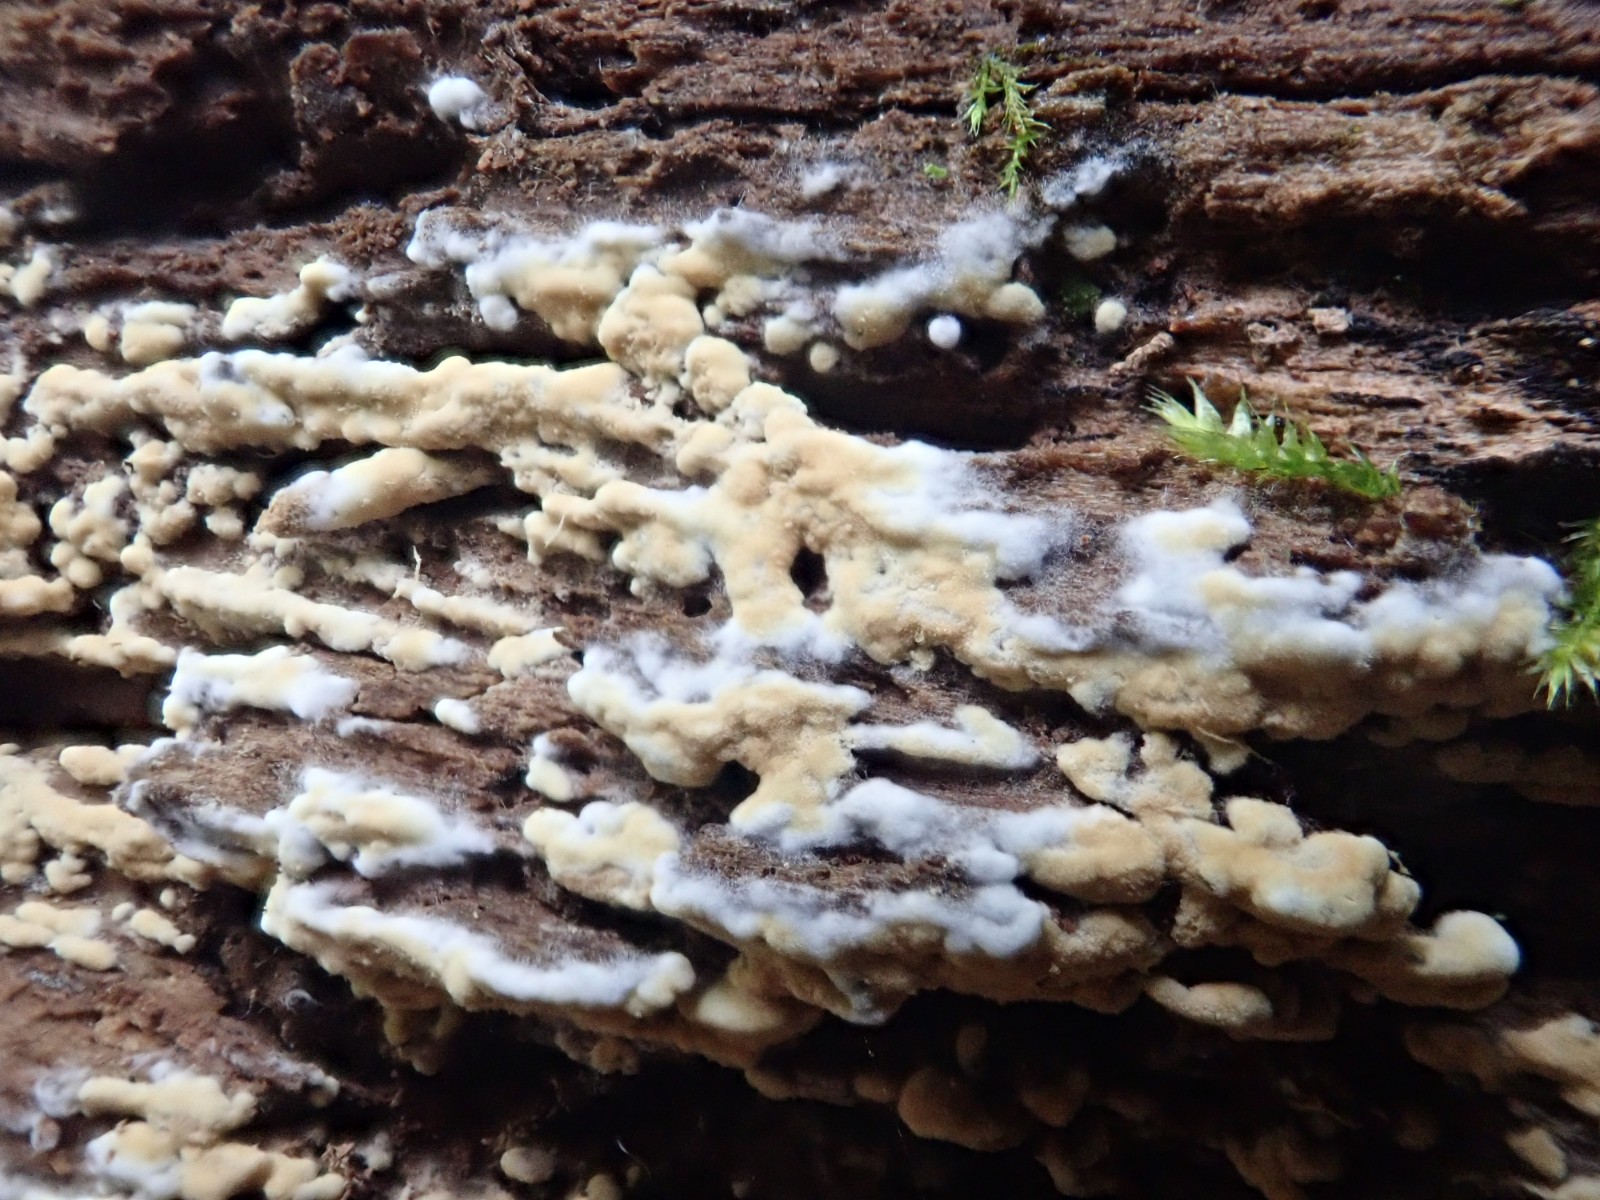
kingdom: Fungi
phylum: Basidiomycota
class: Agaricomycetes
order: Cantharellales
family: Botryobasidiaceae
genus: Botryobasidium
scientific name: Botryobasidium aureum
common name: gylden spindhinde
